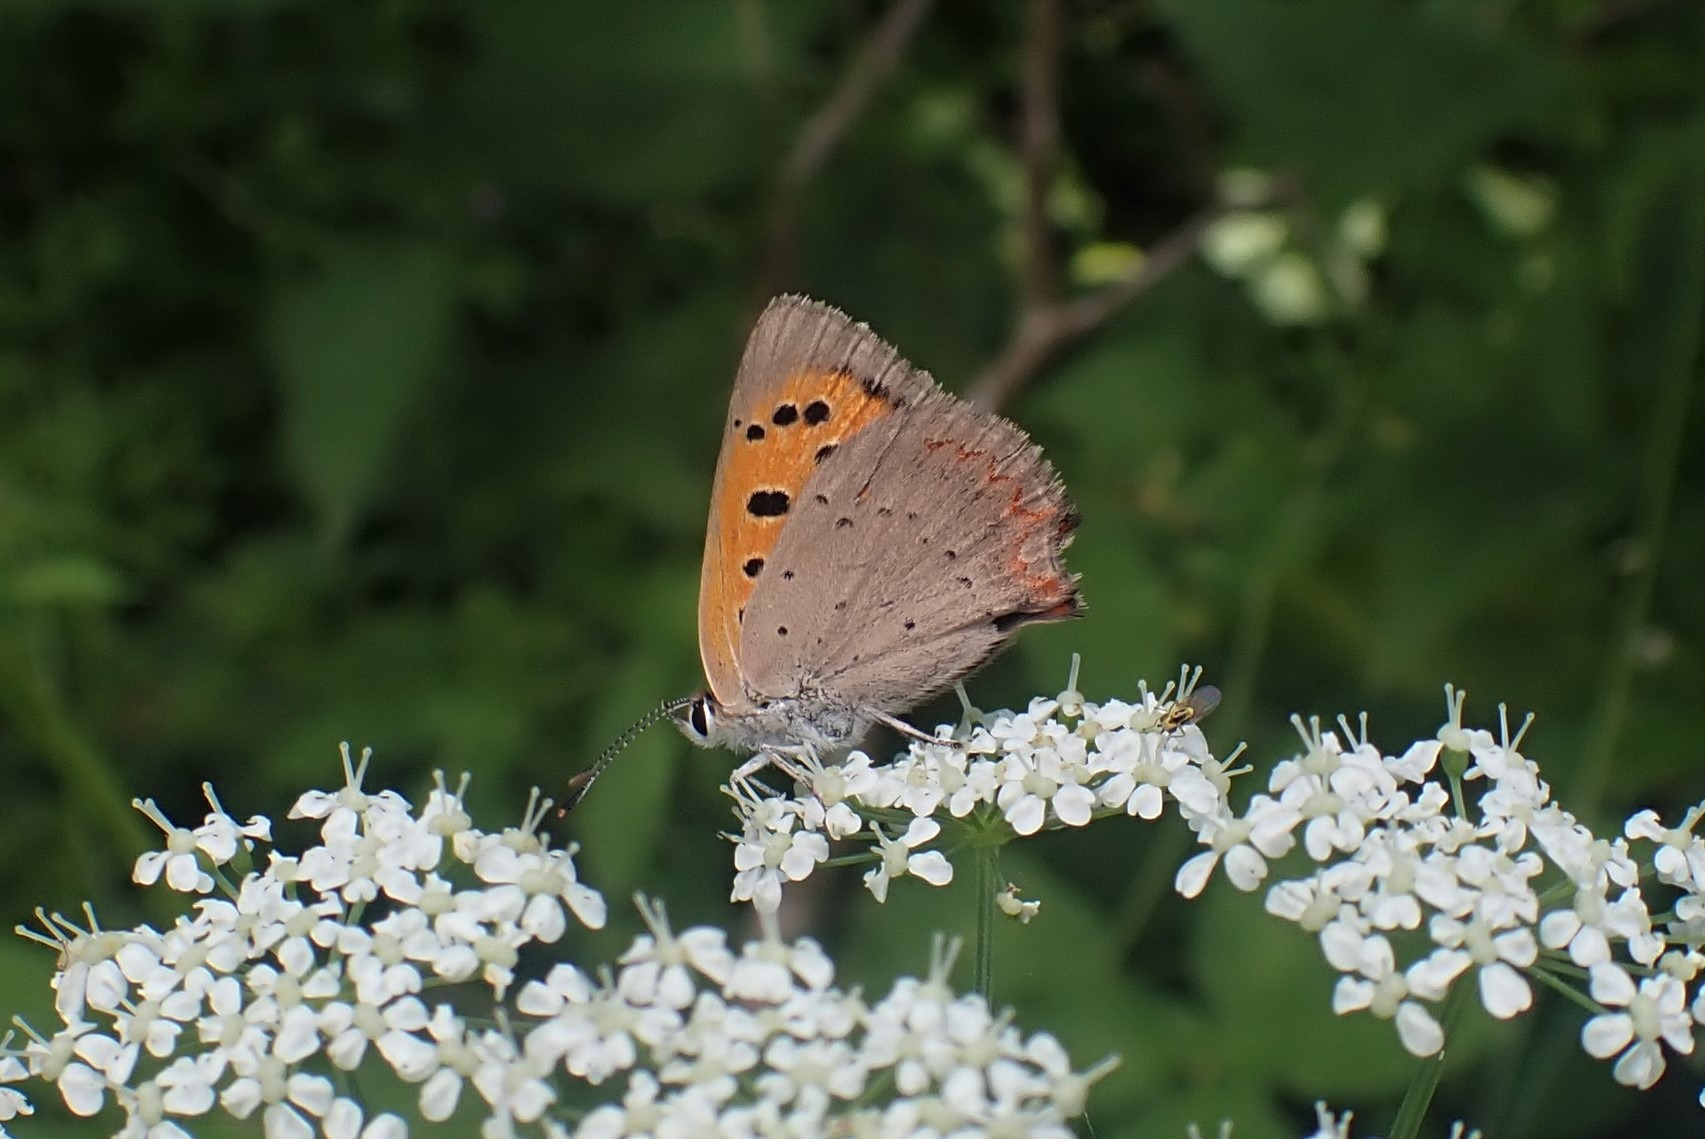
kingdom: Animalia
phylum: Arthropoda
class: Insecta
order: Lepidoptera
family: Lycaenidae
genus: Lycaena
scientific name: Lycaena phlaeas
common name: Lille ildfugl
